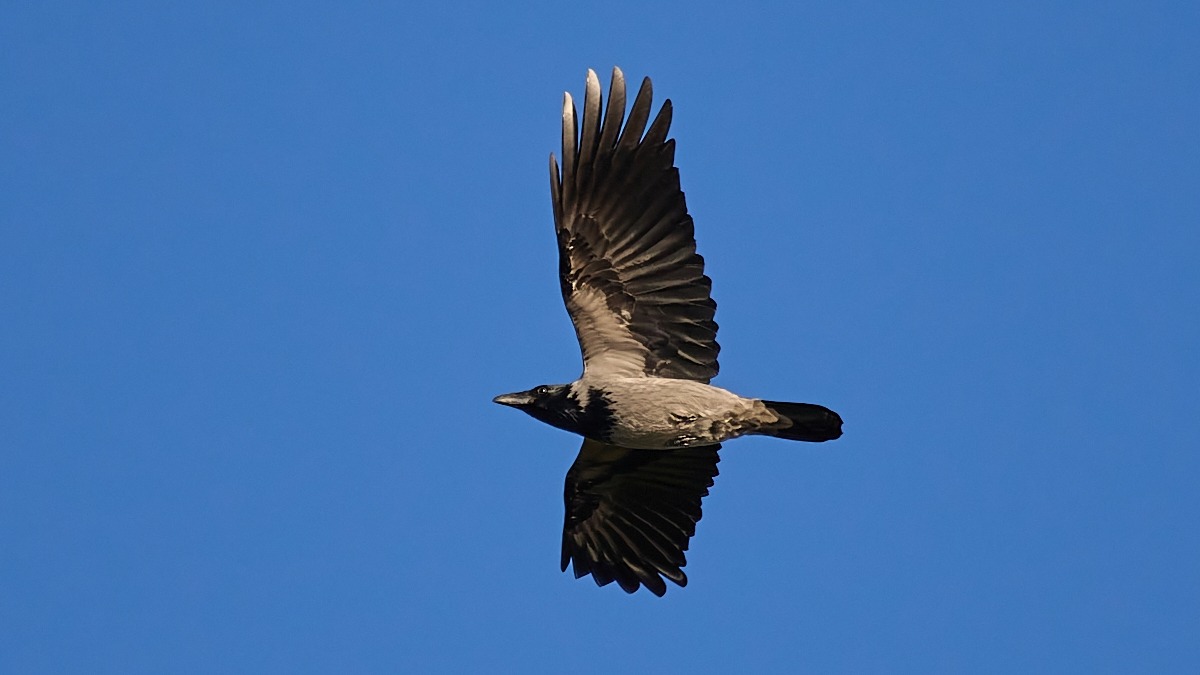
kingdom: Animalia
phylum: Chordata
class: Aves
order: Passeriformes
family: Corvidae
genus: Corvus
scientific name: Corvus cornix
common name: Gråkrage
